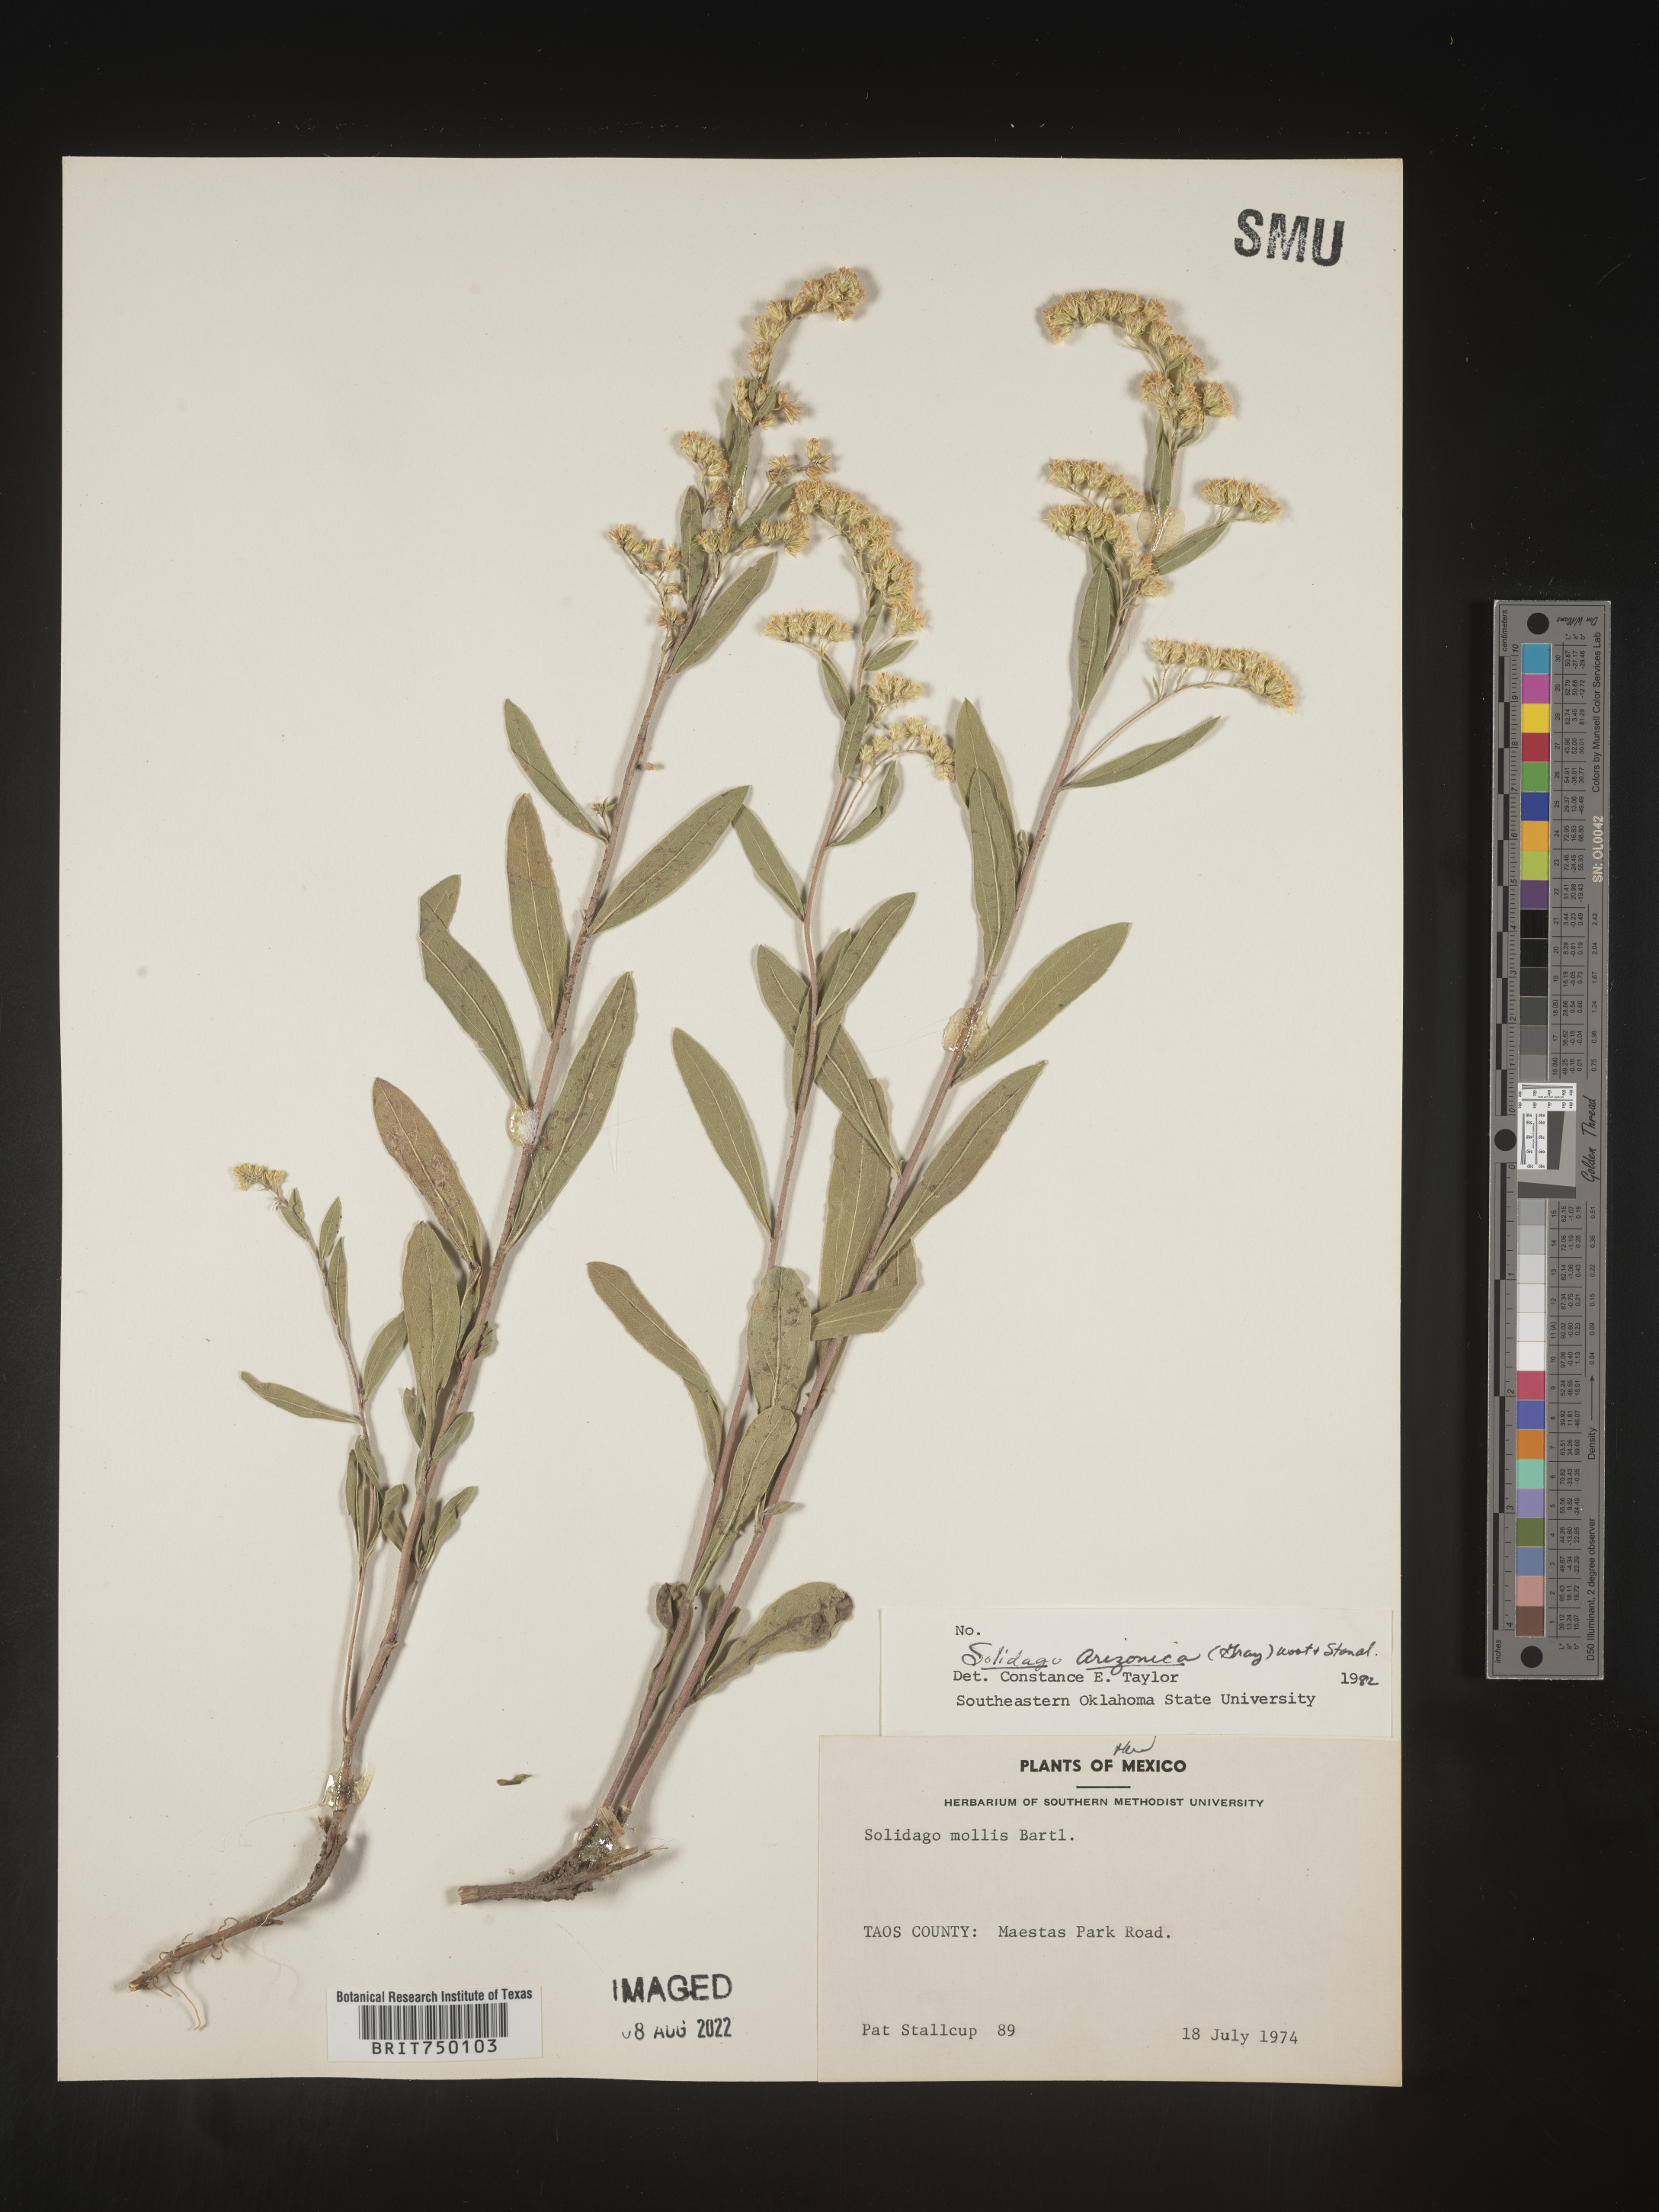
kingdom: Plantae
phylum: Tracheophyta
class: Magnoliopsida
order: Asterales
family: Asteraceae
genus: Solidago
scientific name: Solidago velutina
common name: Three-nerve goldenrod
